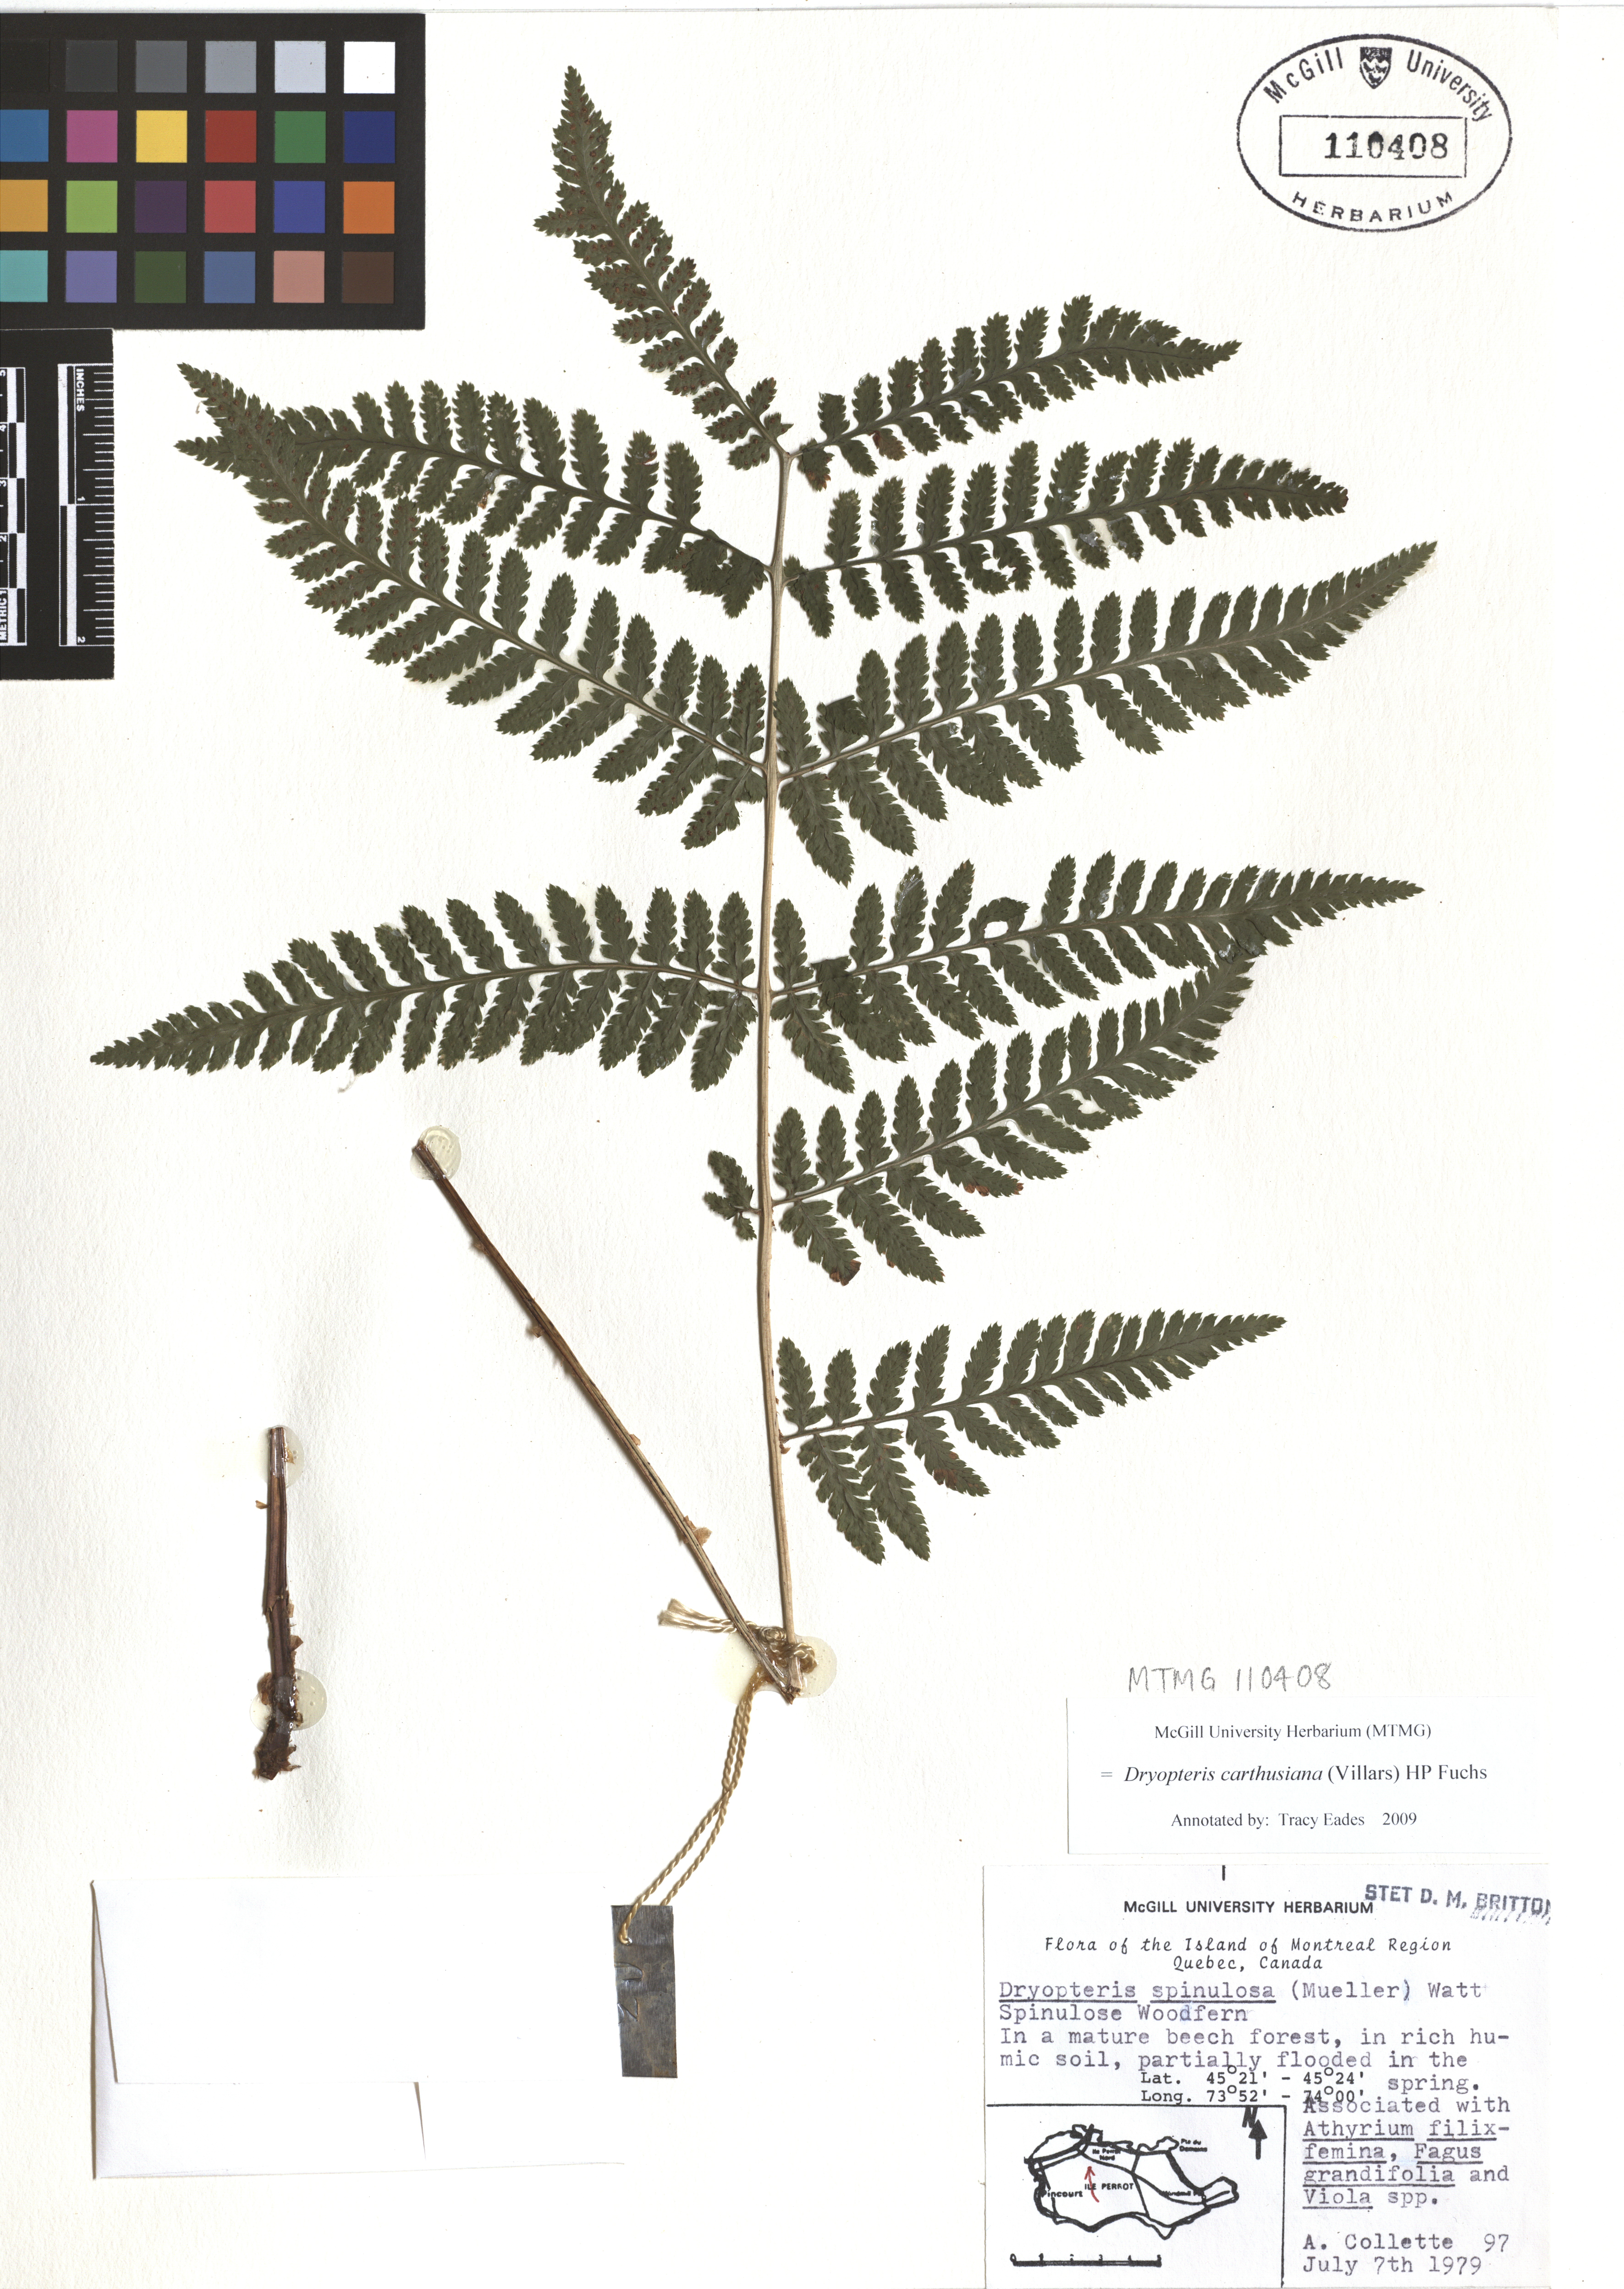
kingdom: Plantae
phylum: Tracheophyta
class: Polypodiopsida
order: Polypodiales
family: Dryopteridaceae
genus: Dryopteris
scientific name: Dryopteris carthusiana
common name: Narrow buckler-fern
